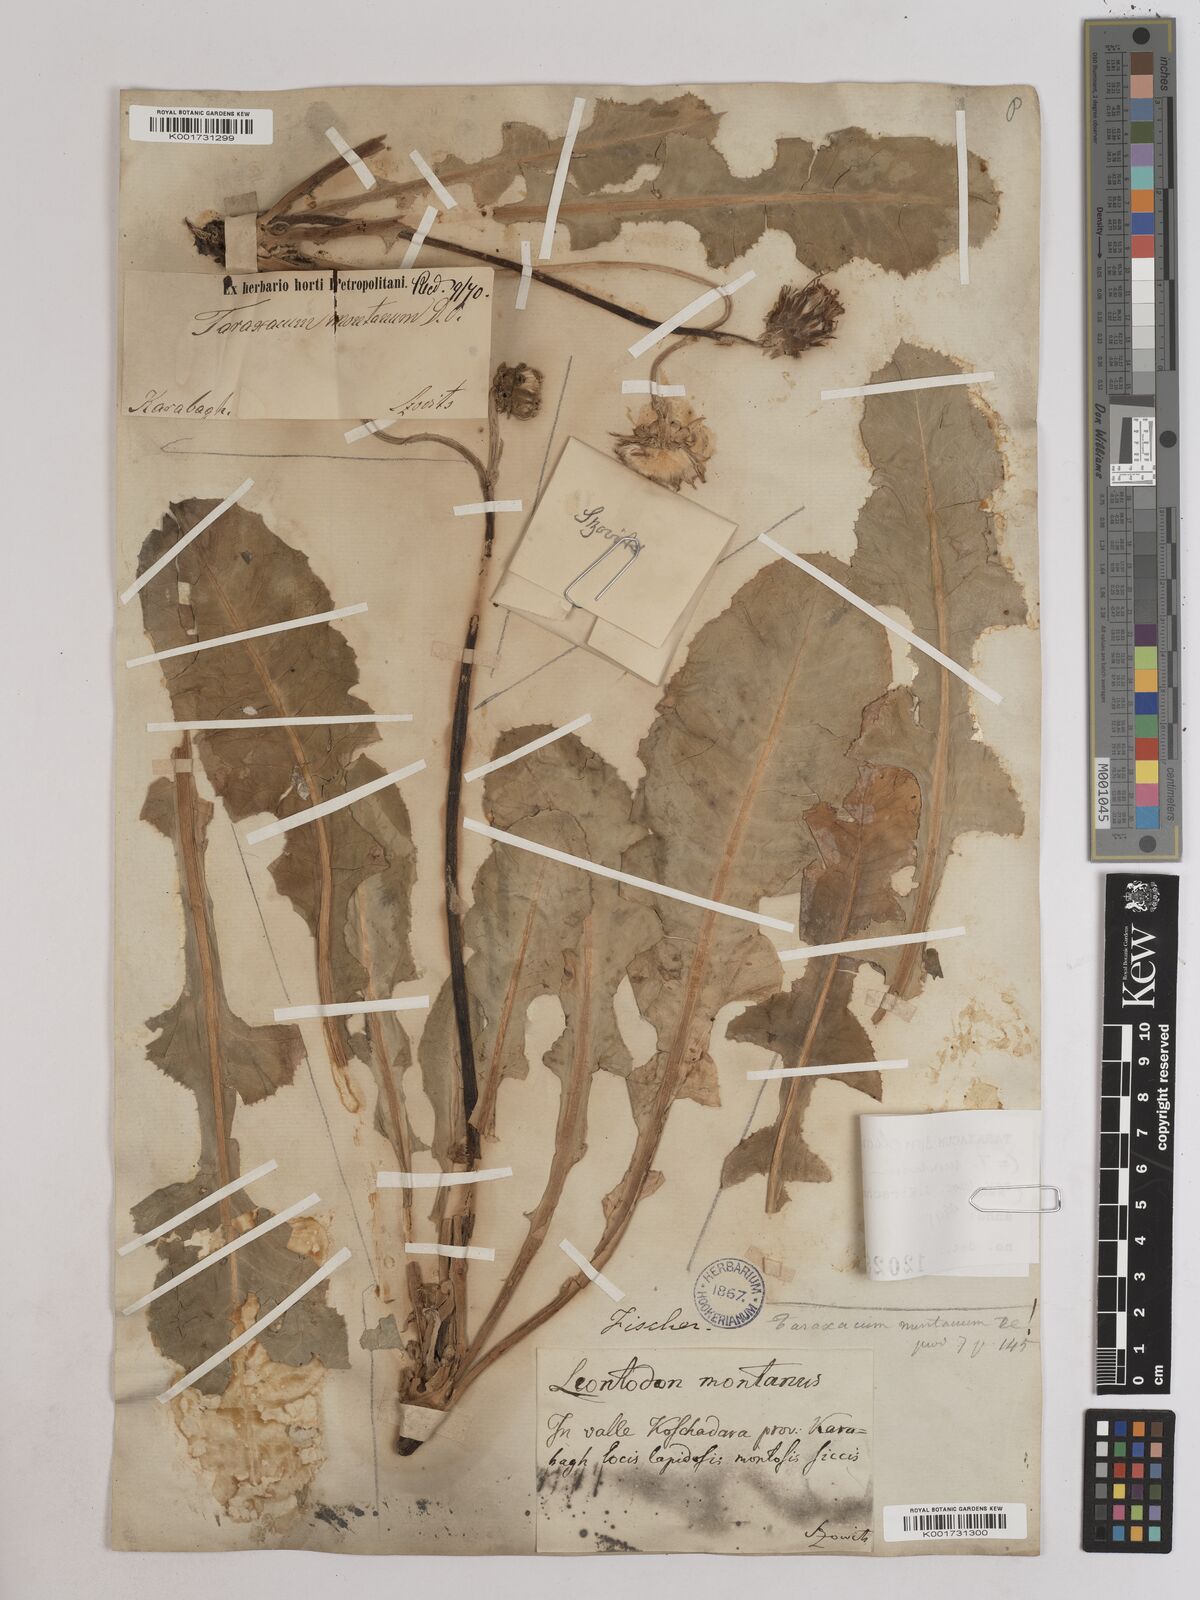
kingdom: Plantae
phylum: Tracheophyta
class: Magnoliopsida
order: Asterales
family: Asteraceae
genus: Taraxacum
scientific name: Taraxacum sonchoides
